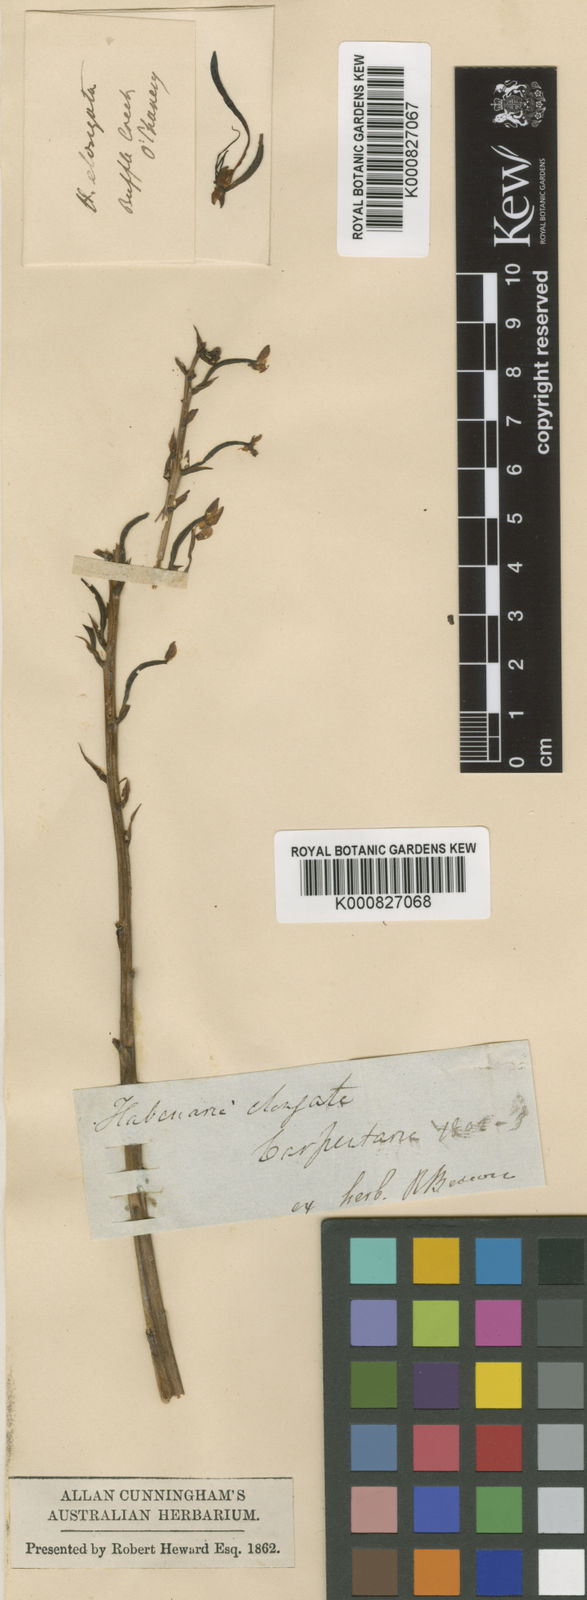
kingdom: Plantae
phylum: Tracheophyta
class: Liliopsida
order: Asparagales
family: Orchidaceae
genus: Habenaria
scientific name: Habenaria elongata
